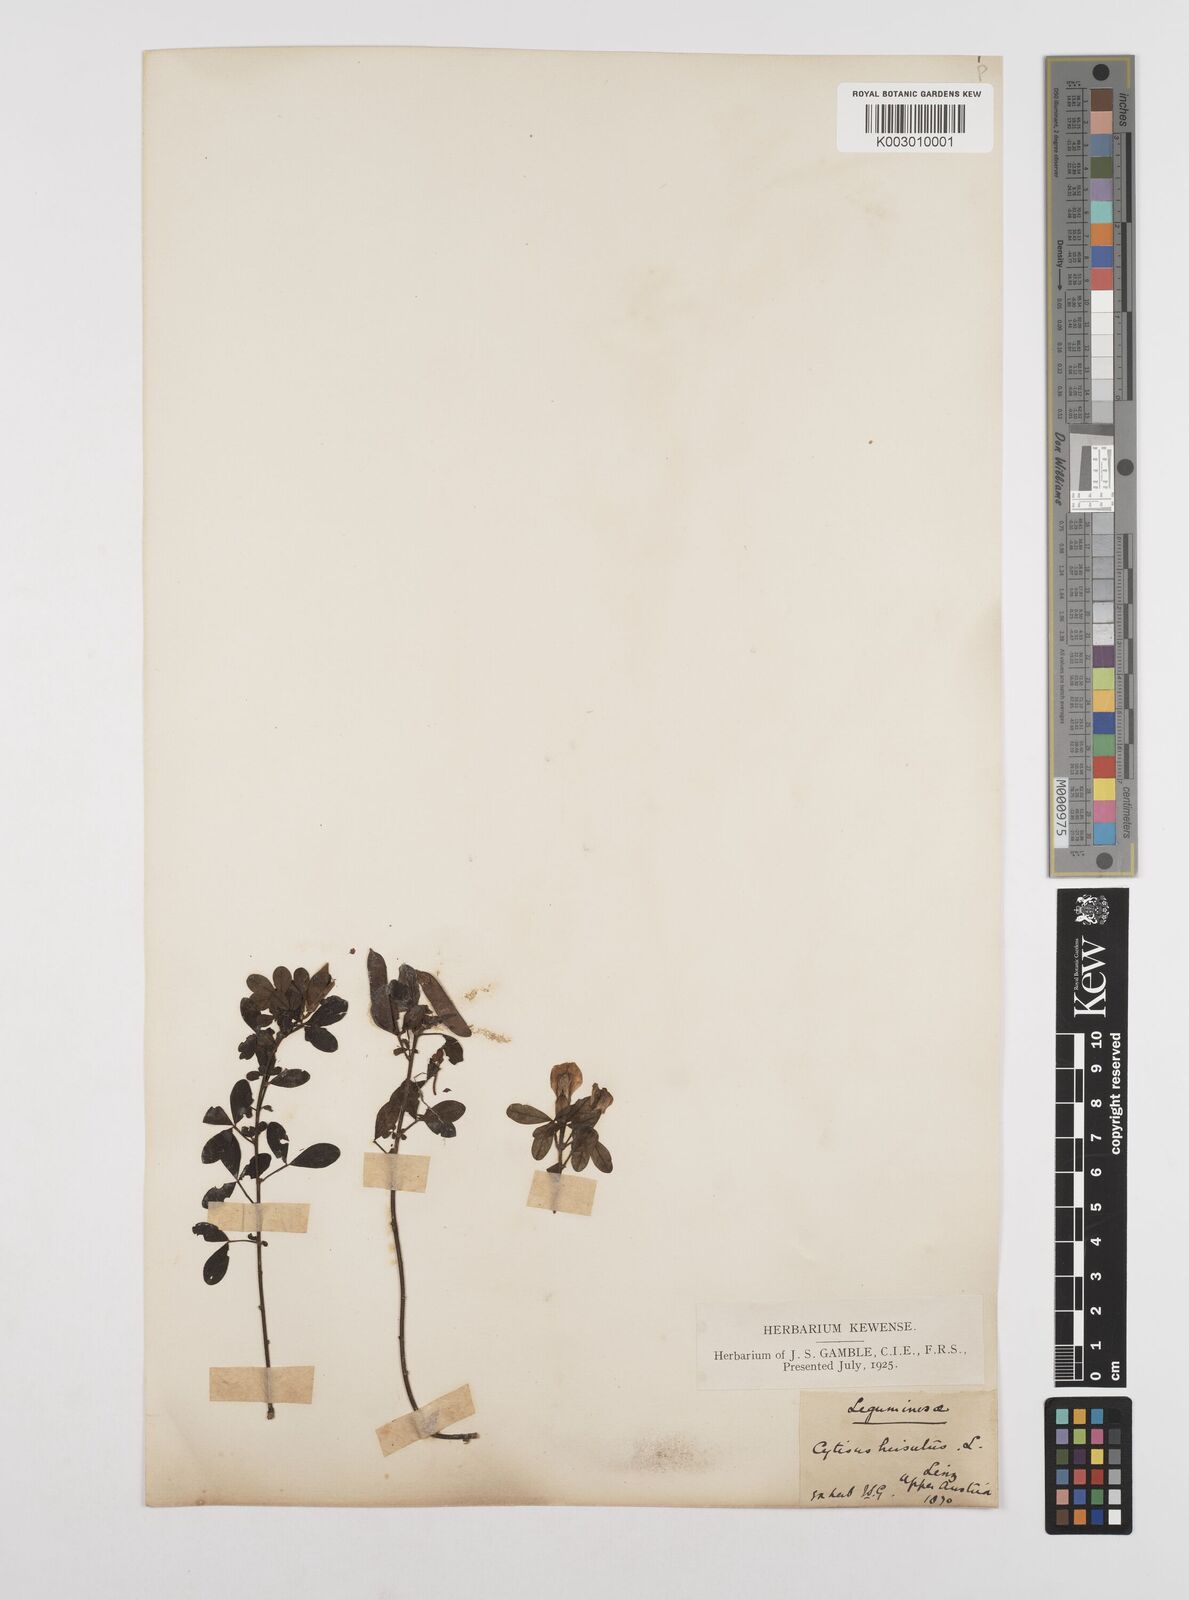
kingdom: Plantae
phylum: Tracheophyta
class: Magnoliopsida
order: Fabales
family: Fabaceae
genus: Chamaecytisus
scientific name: Chamaecytisus hirsutus
